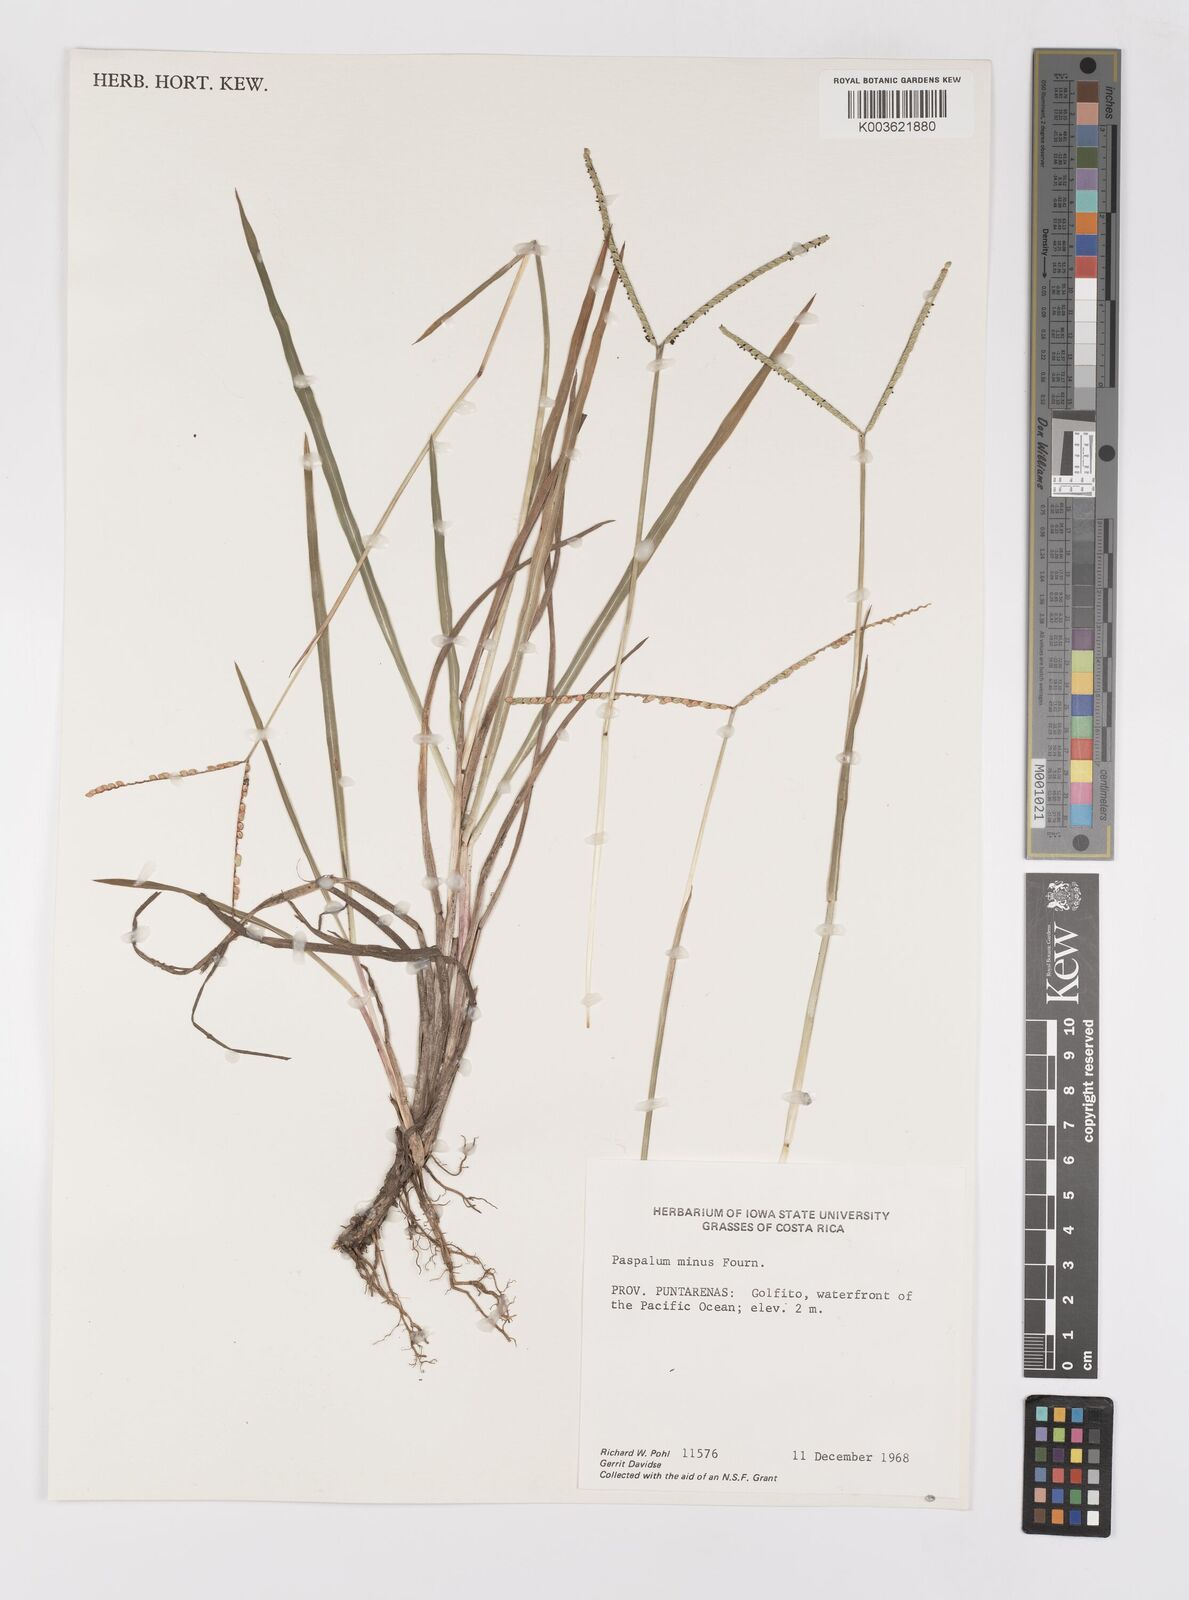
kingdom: Plantae
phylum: Tracheophyta
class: Liliopsida
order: Poales
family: Poaceae
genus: Paspalum
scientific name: Paspalum minus
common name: Matted paspalum
